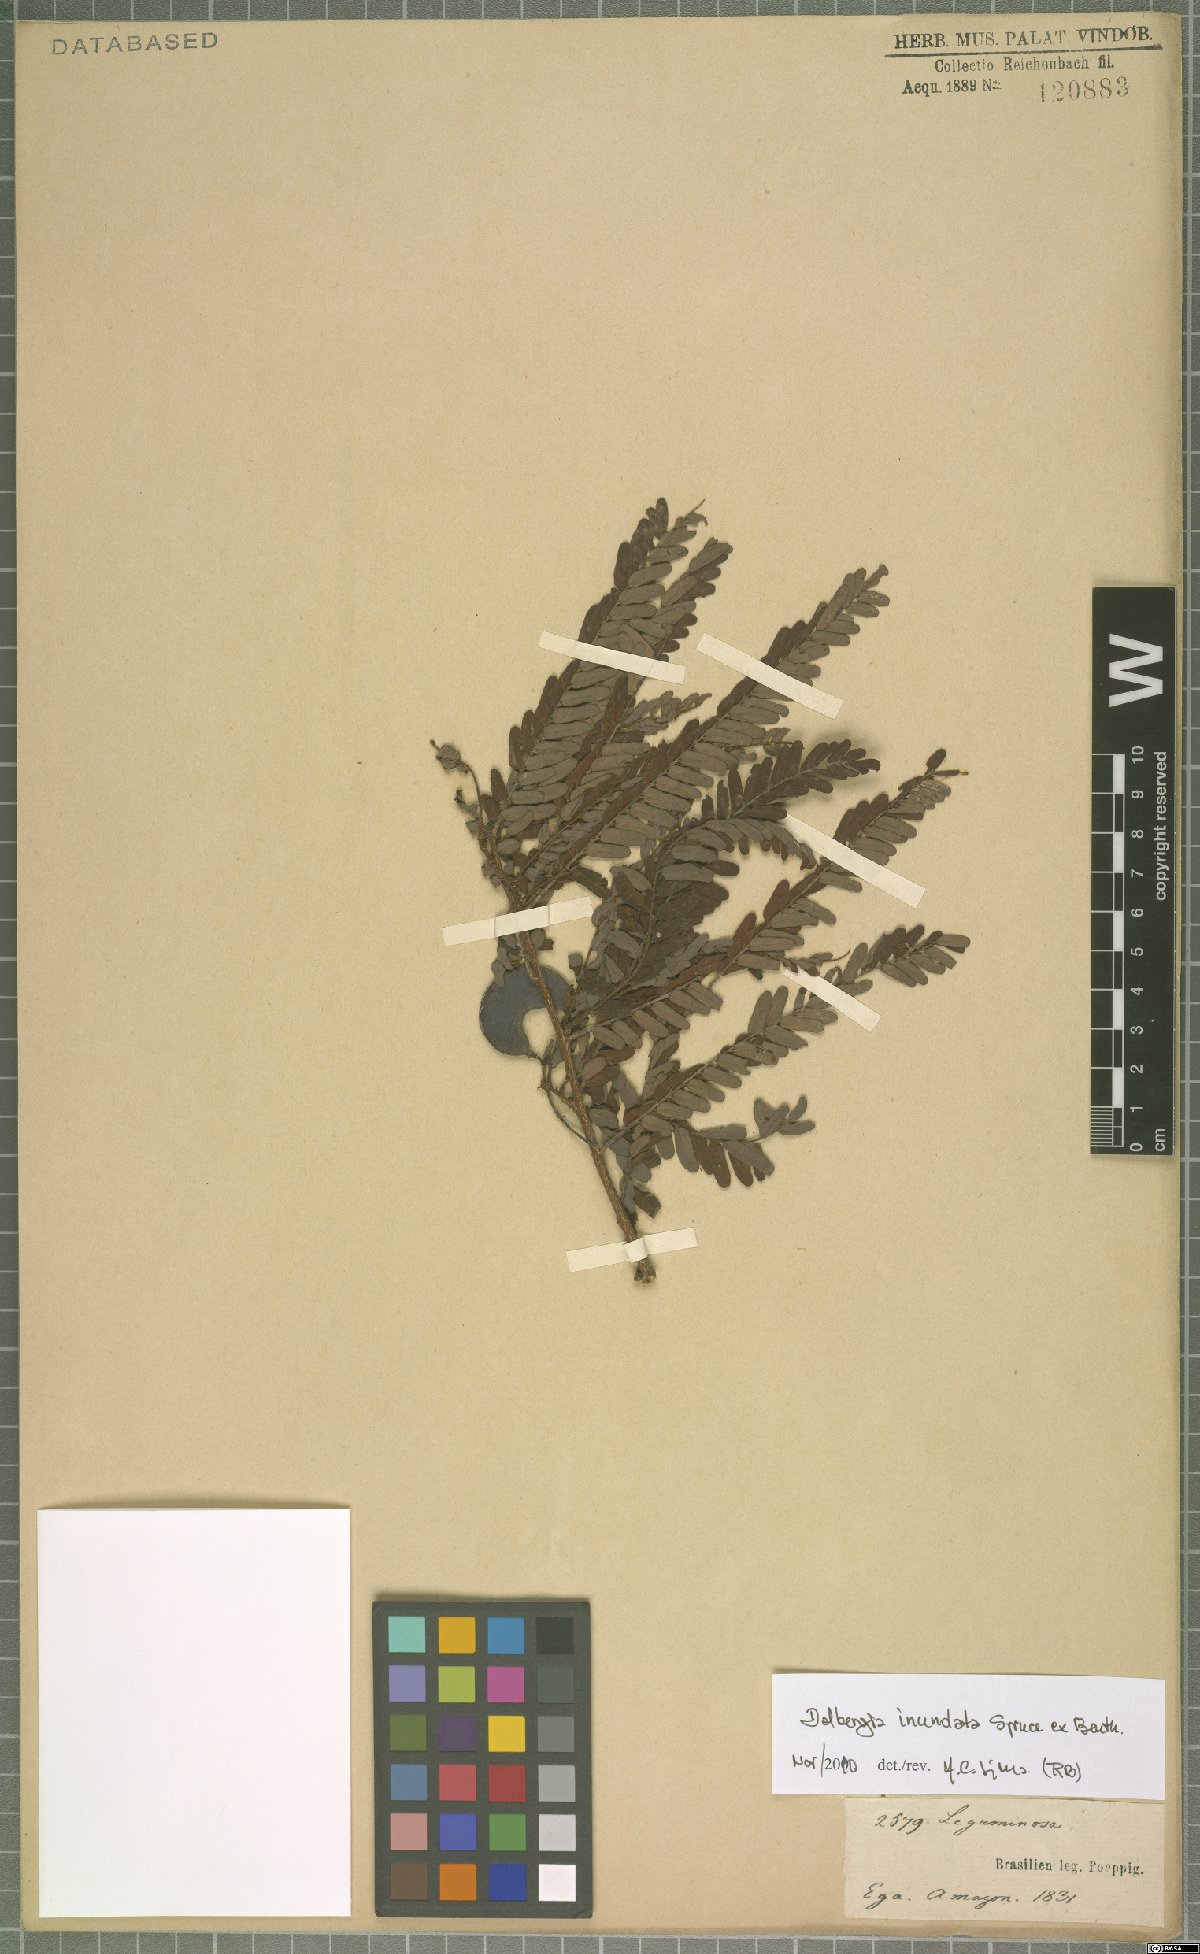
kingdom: Plantae
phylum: Tracheophyta
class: Magnoliopsida
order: Fabales
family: Fabaceae
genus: Dalbergia
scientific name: Dalbergia inundata
